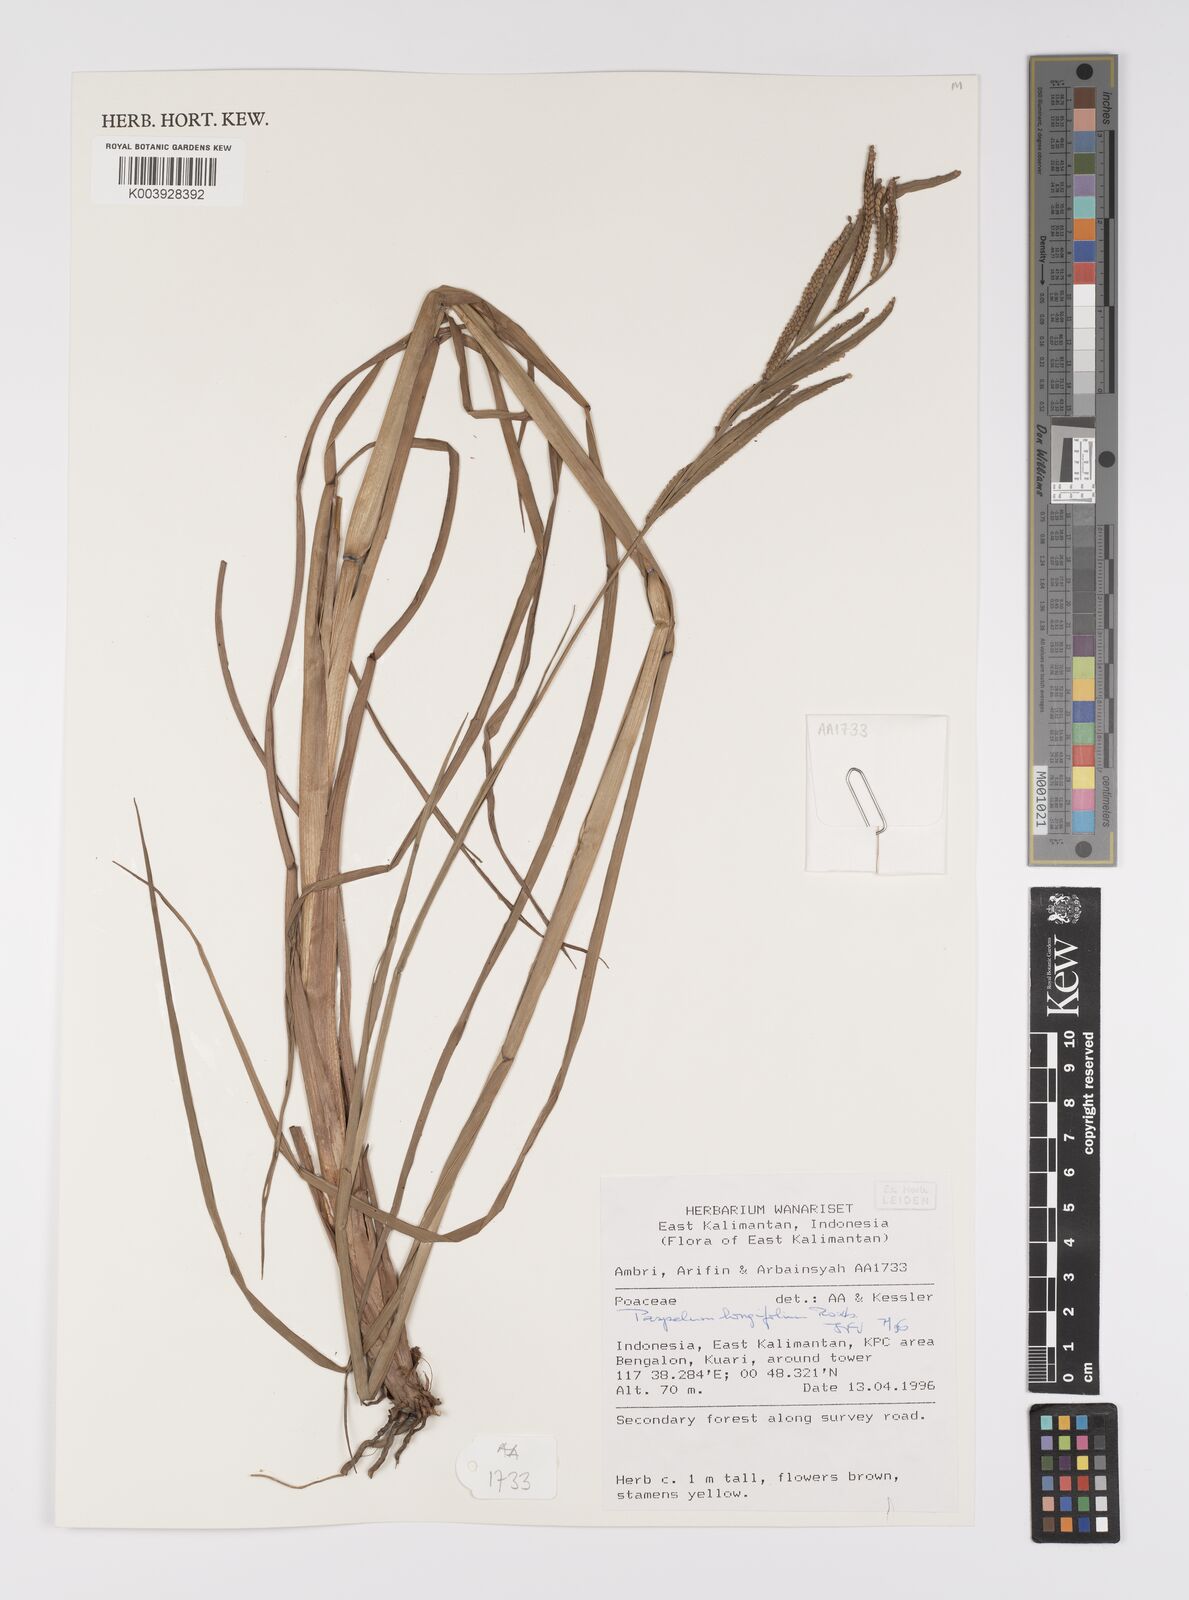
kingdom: Plantae
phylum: Tracheophyta
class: Liliopsida
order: Poales
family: Poaceae
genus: Paspalum
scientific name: Paspalum sumatrense
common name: Long-leaved paspalum
